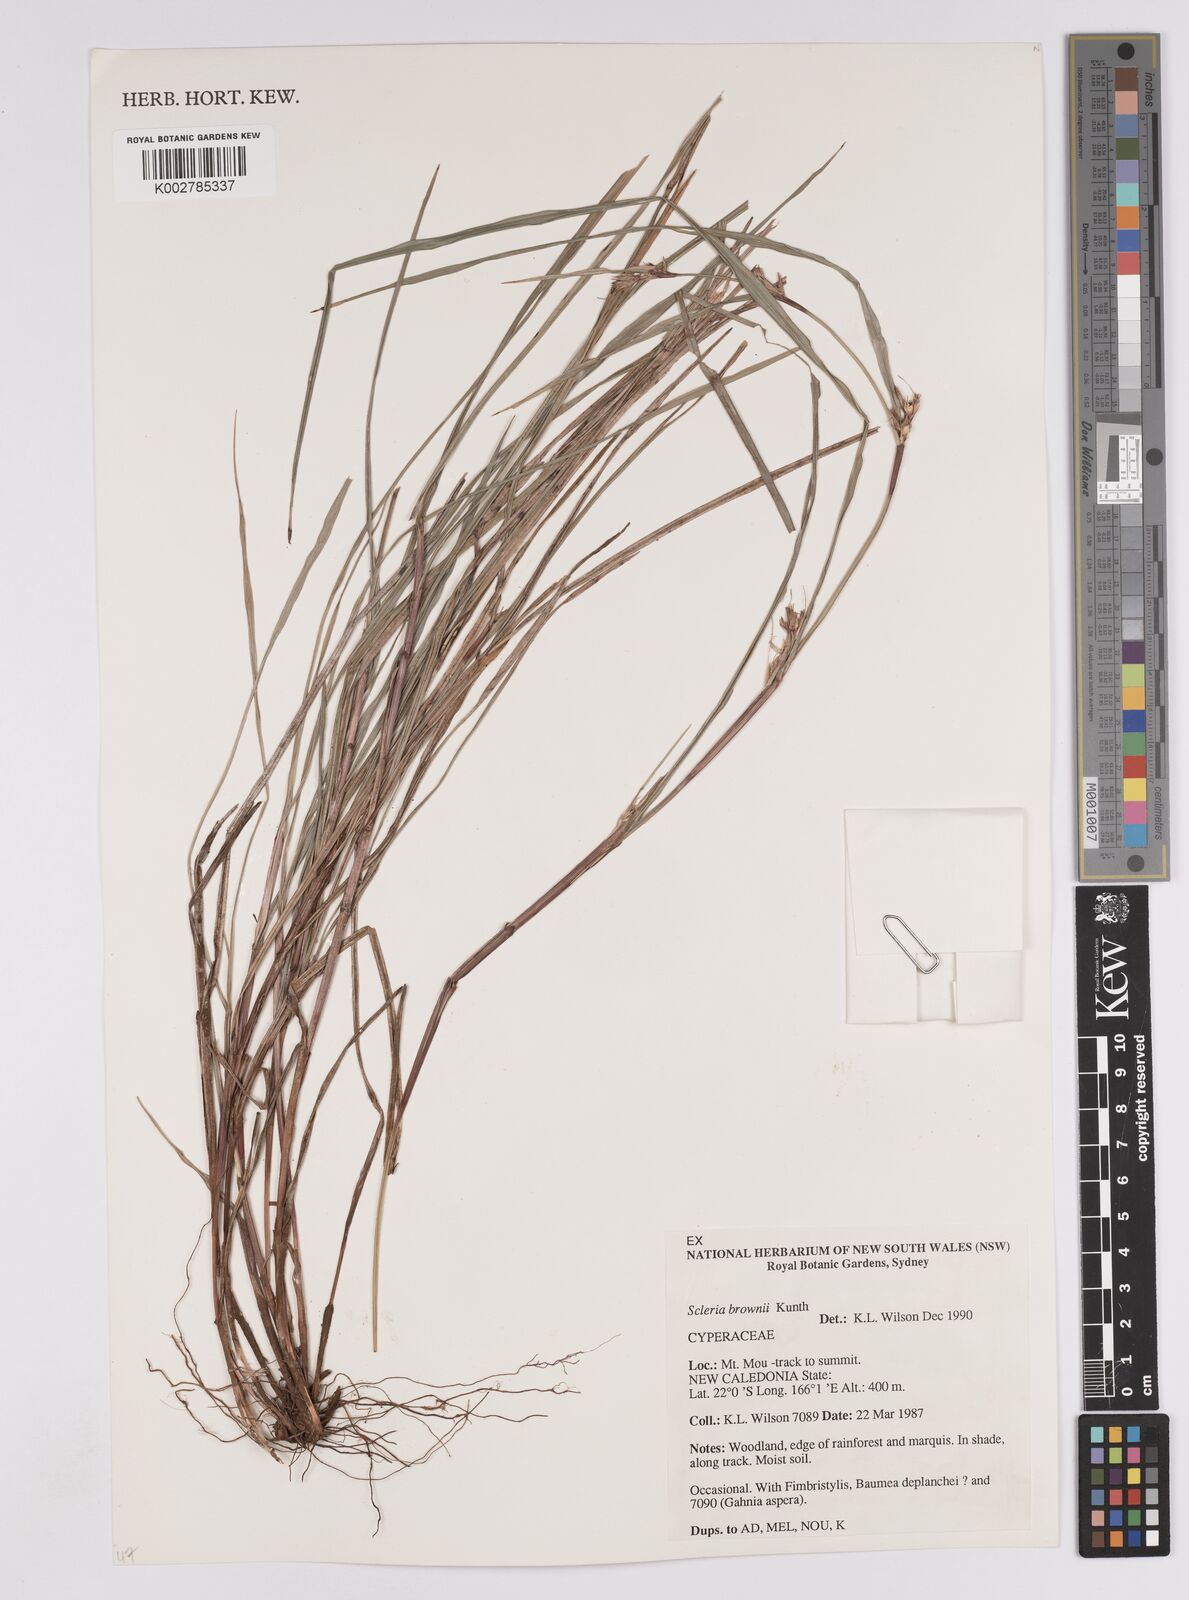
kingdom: Plantae
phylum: Tracheophyta
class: Liliopsida
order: Poales
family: Cyperaceae
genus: Scleria
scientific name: Scleria brownii
